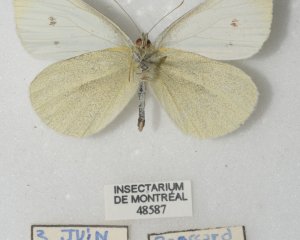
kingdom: Animalia
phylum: Arthropoda
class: Insecta
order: Lepidoptera
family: Pieridae
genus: Pieris
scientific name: Pieris rapae
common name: Cabbage White
